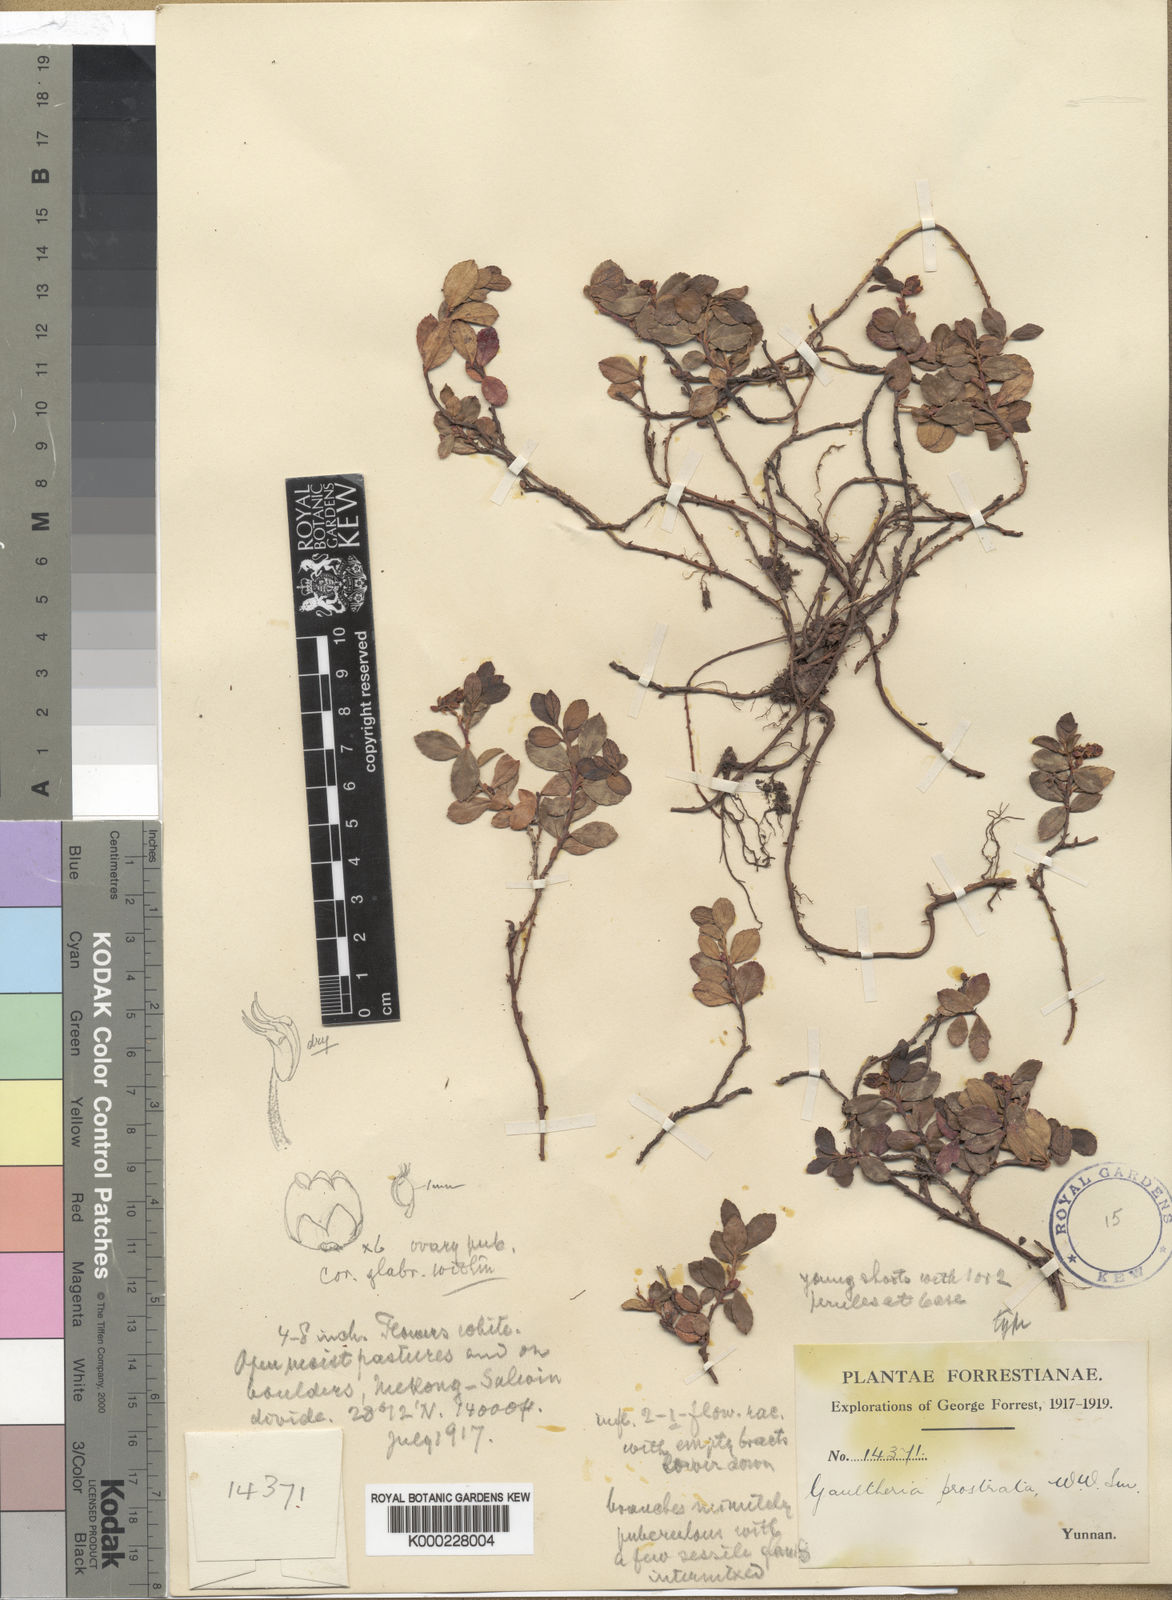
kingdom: Plantae
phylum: Tracheophyta
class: Magnoliopsida
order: Ericales
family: Ericaceae
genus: Gaultheria
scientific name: Gaultheria prostrata
